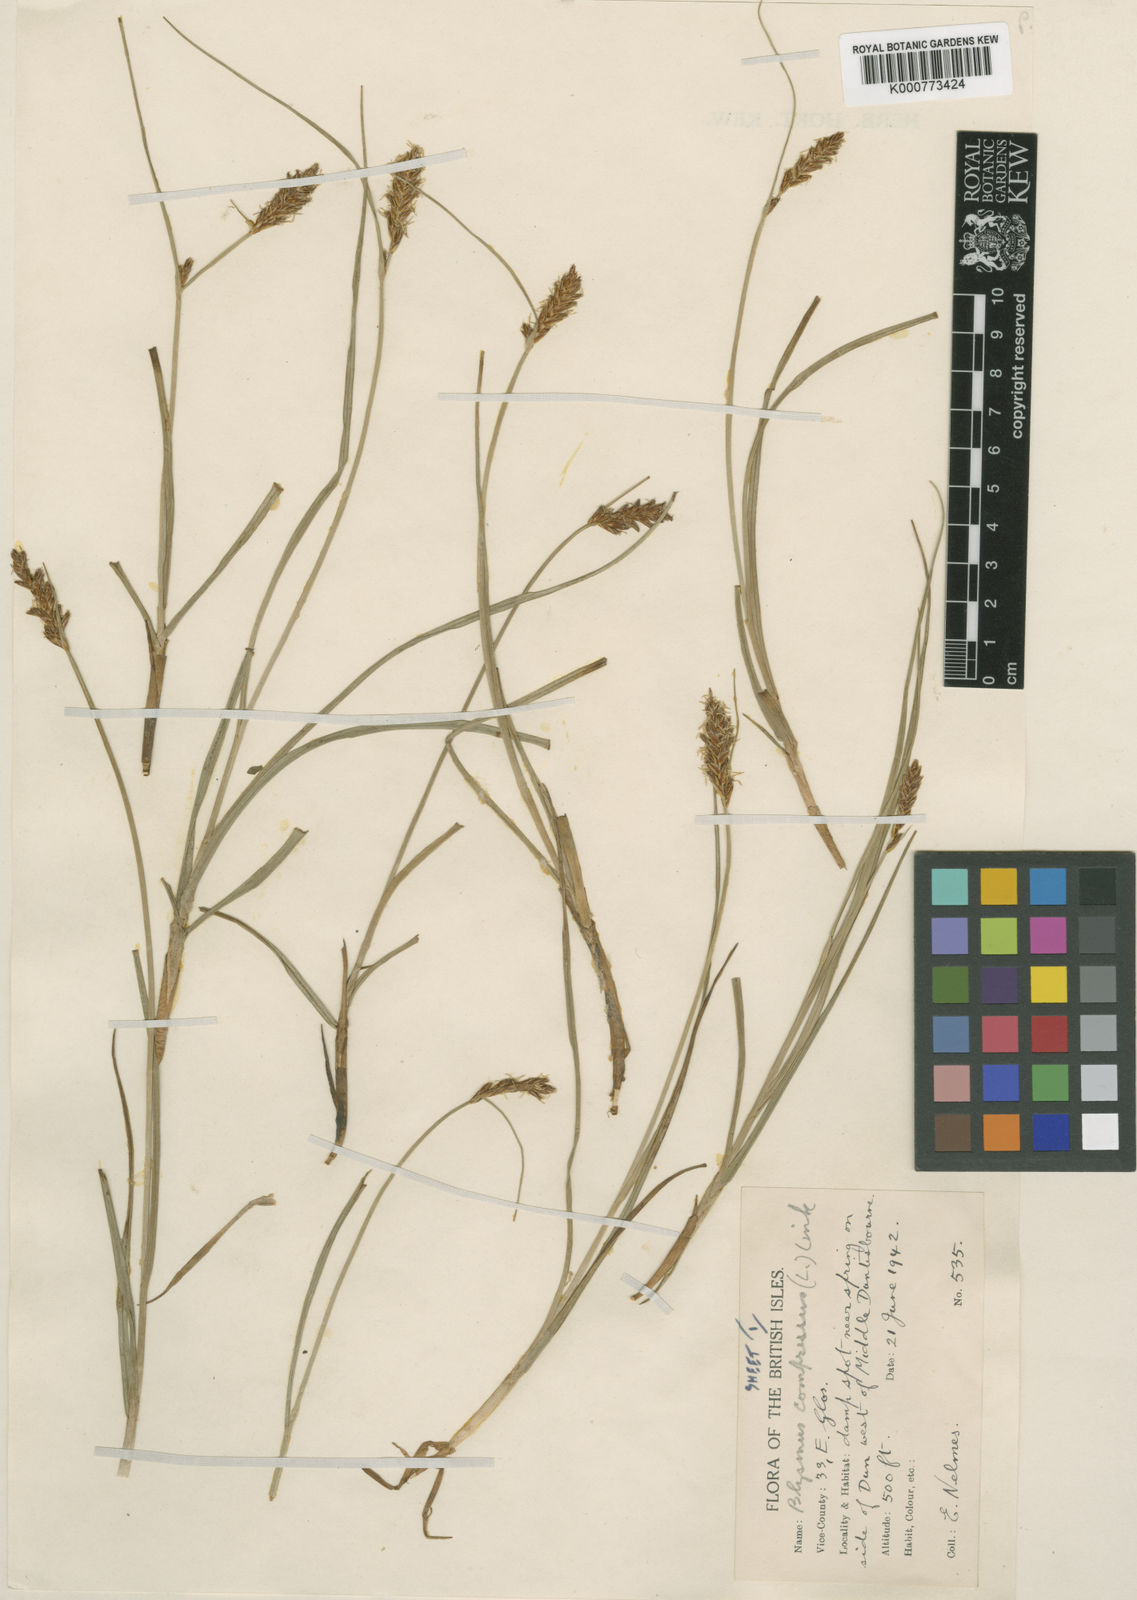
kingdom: Plantae
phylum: Tracheophyta
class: Liliopsida
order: Poales
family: Cyperaceae
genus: Blysmus
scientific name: Blysmus compressus
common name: Flat-sedge
